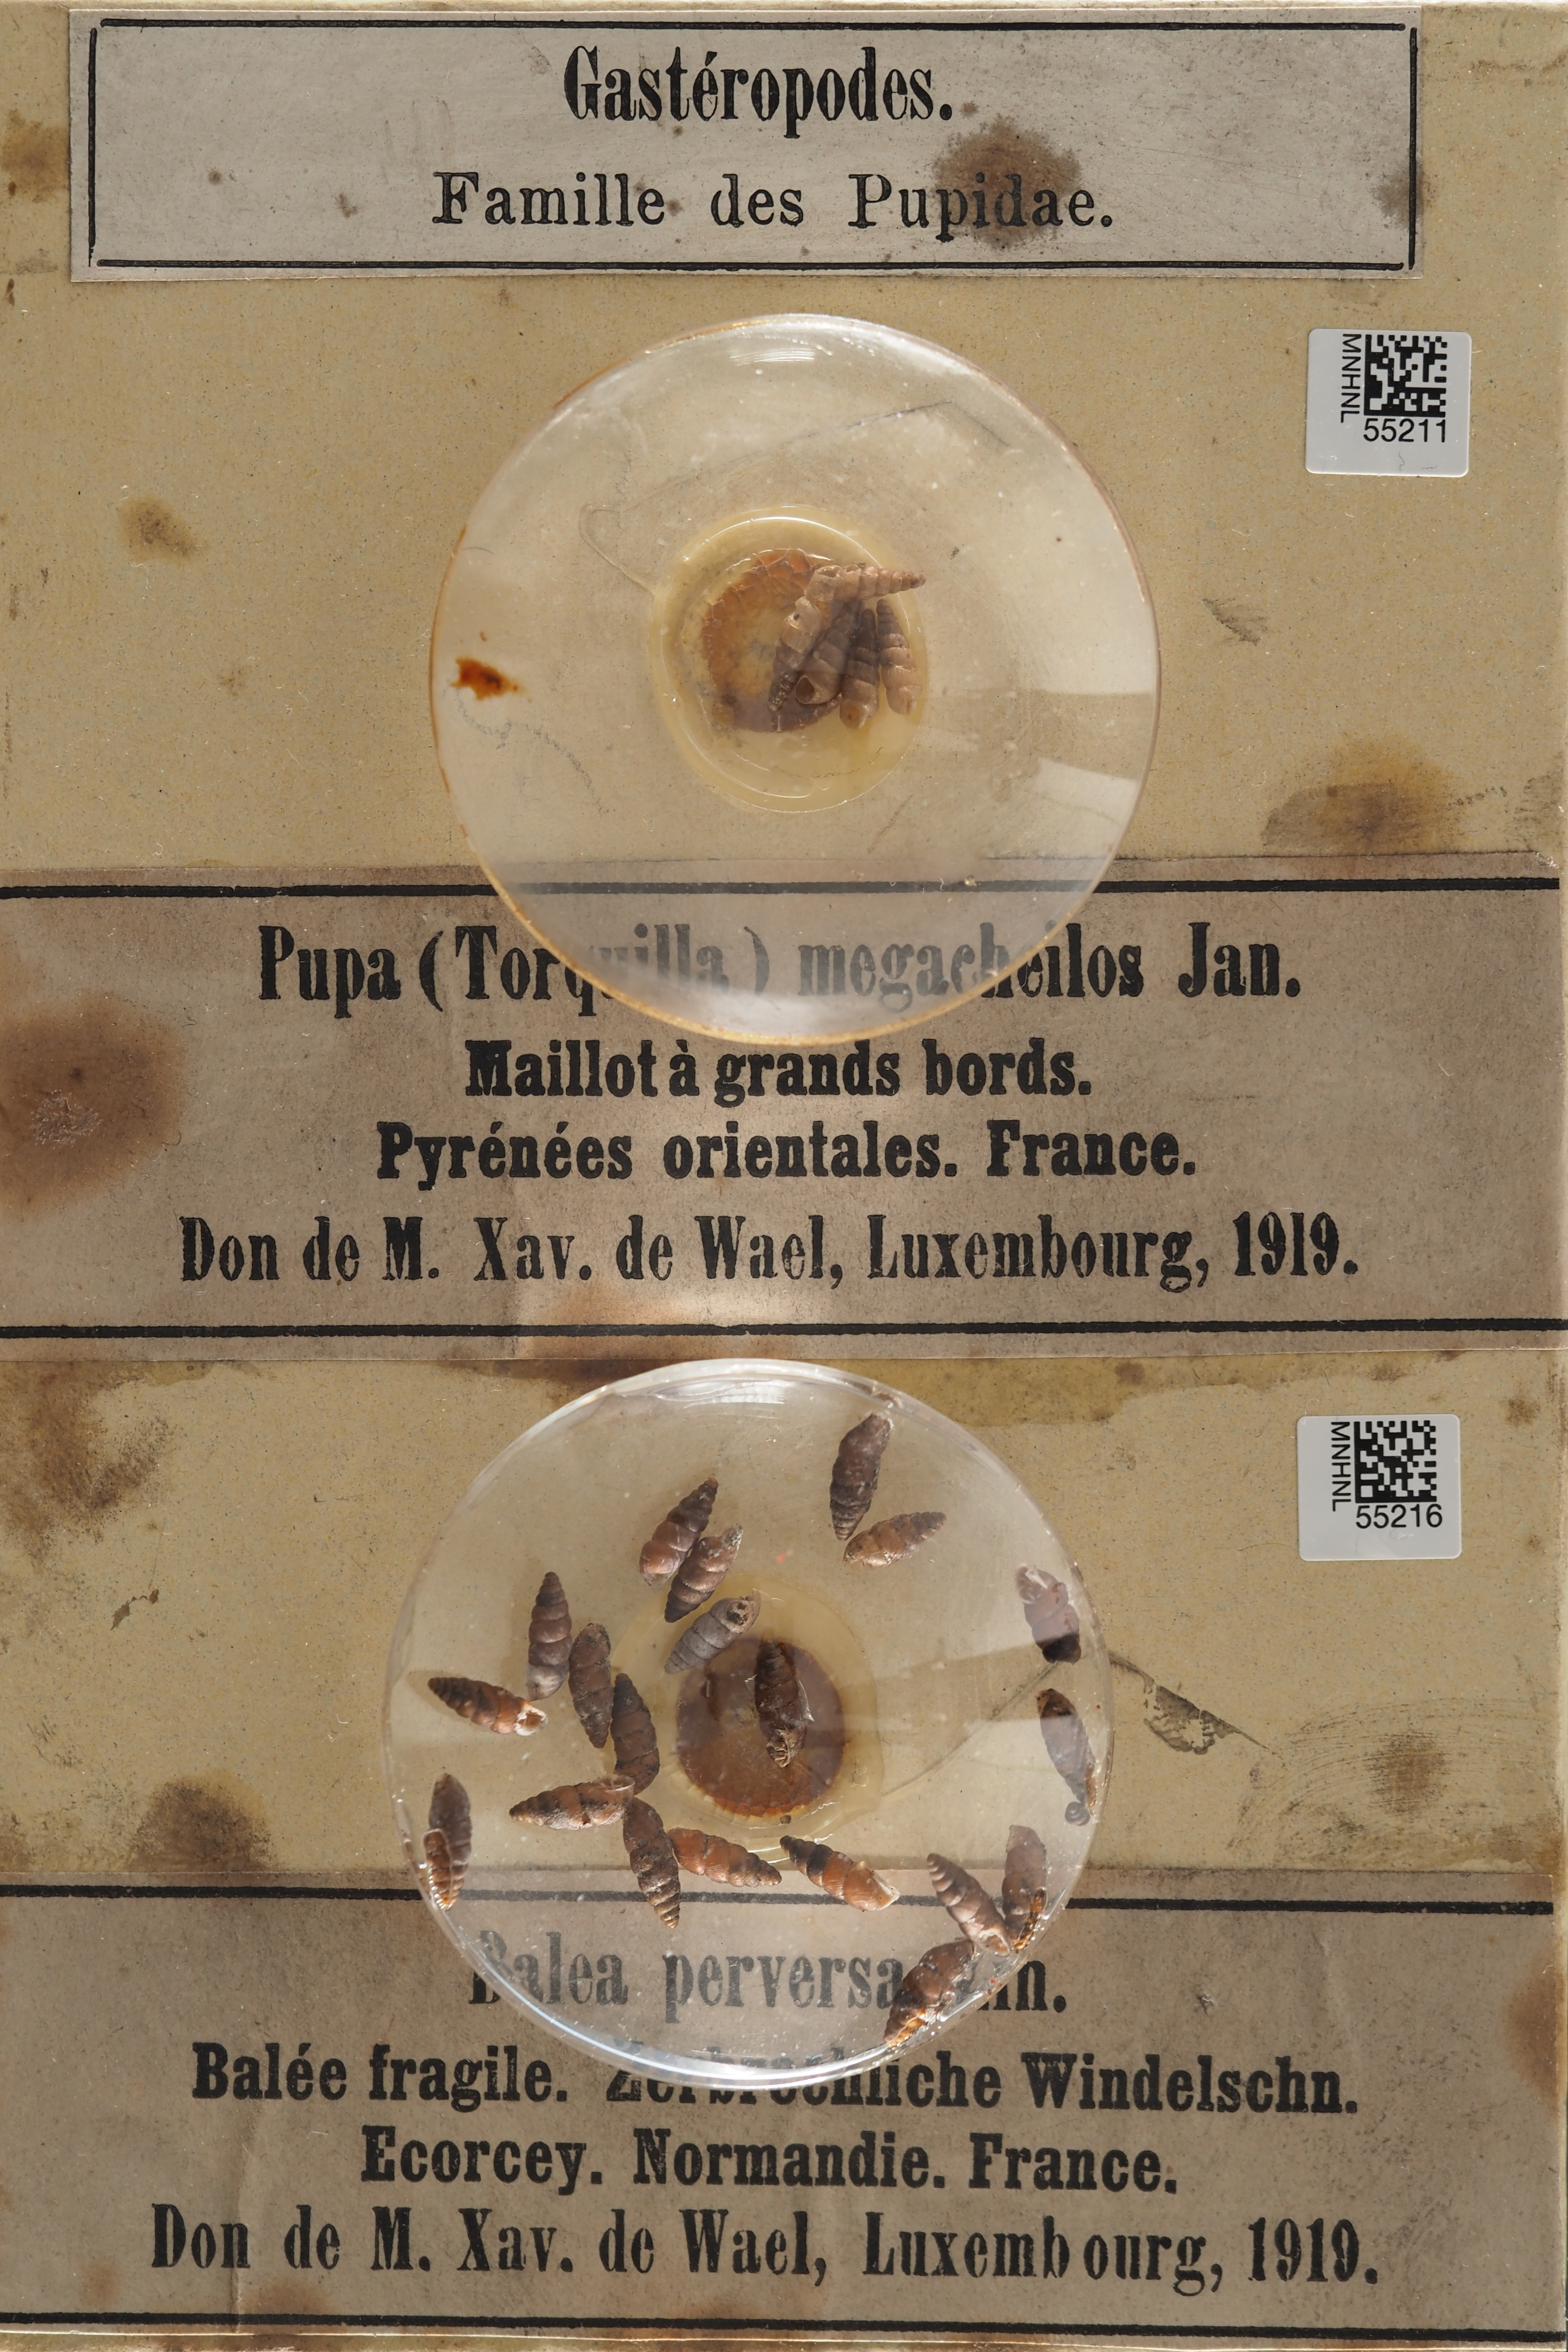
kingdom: Animalia
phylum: Mollusca
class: Gastropoda
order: Stylommatophora
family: Chondrinidae
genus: Chondrina
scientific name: Chondrina megacheilos
